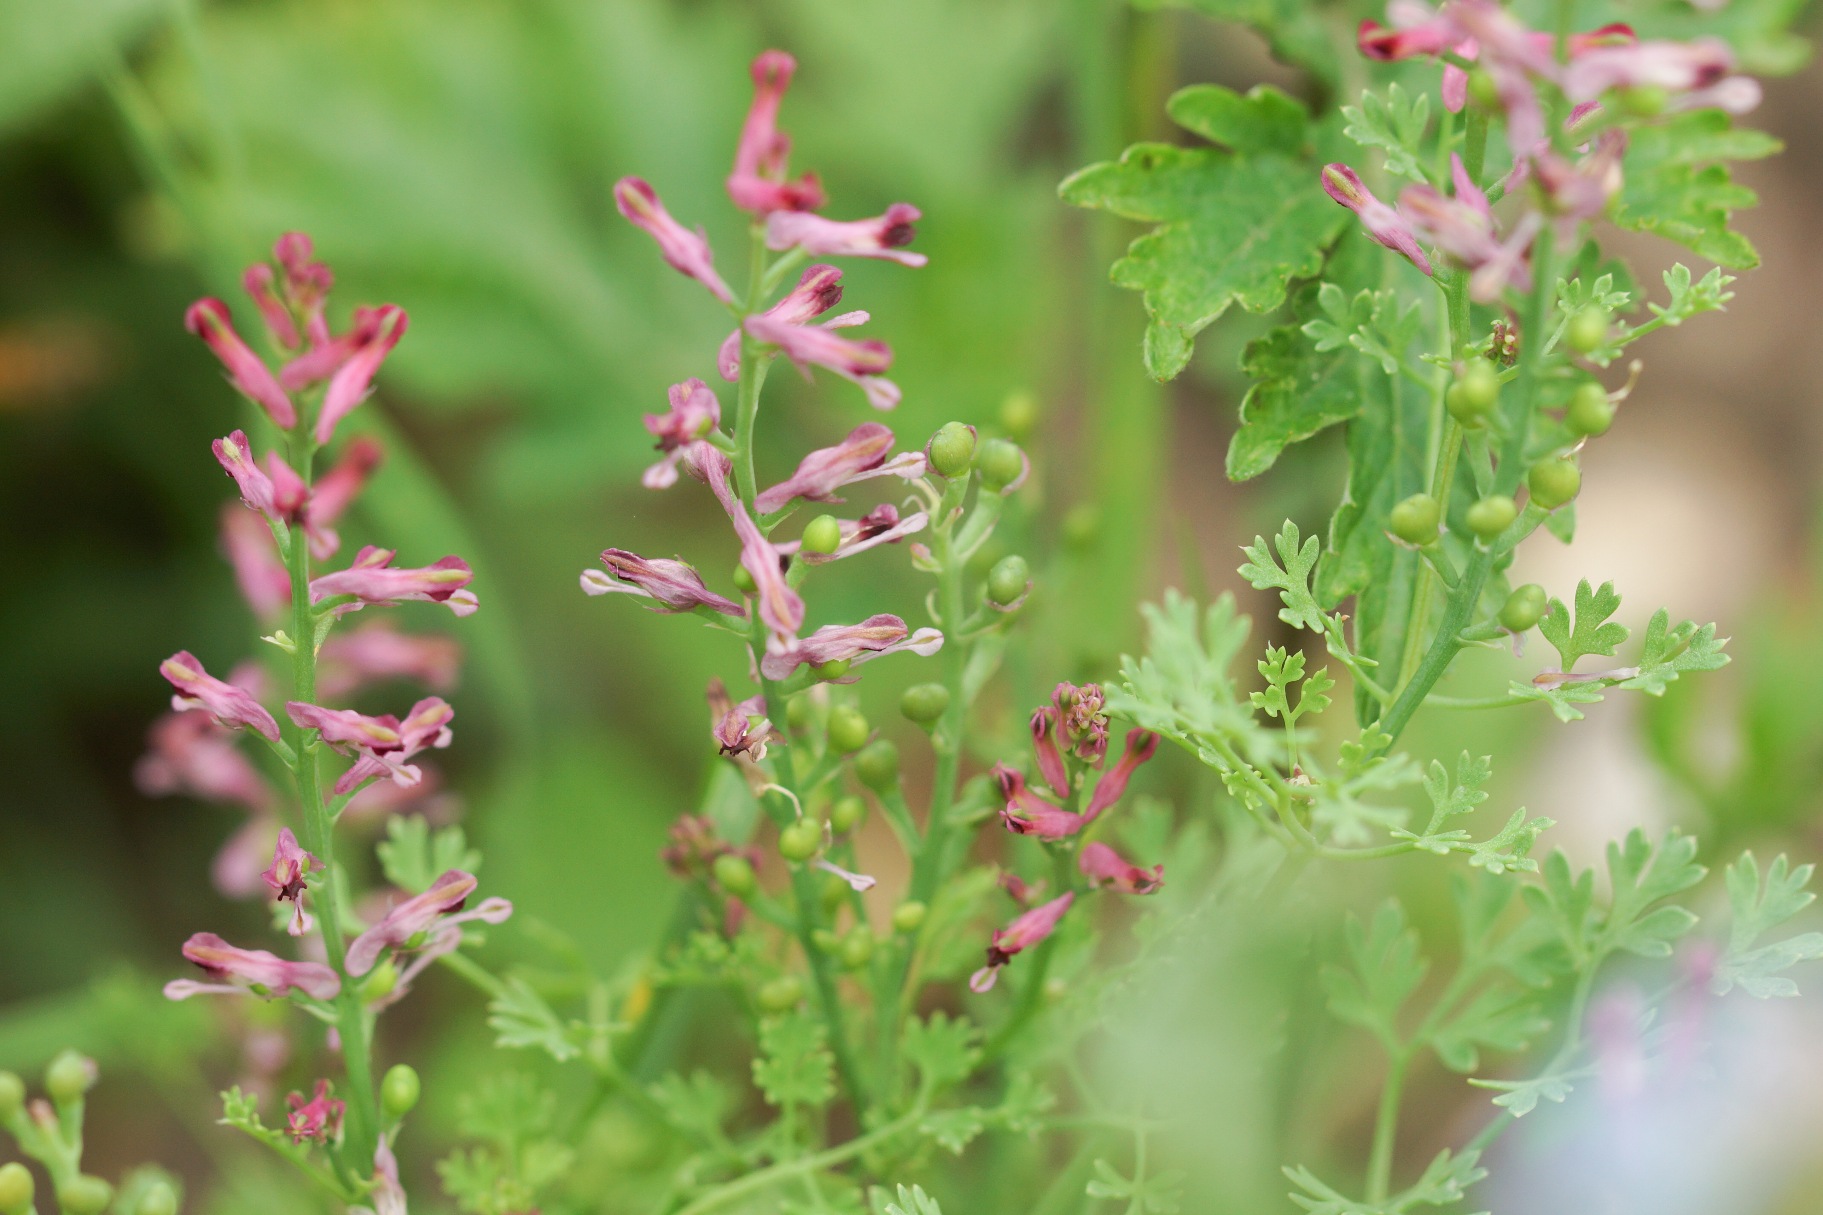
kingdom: Plantae
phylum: Tracheophyta
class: Magnoliopsida
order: Ranunculales
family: Papaveraceae
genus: Fumaria
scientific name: Fumaria officinalis
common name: Læge-jordrøg
